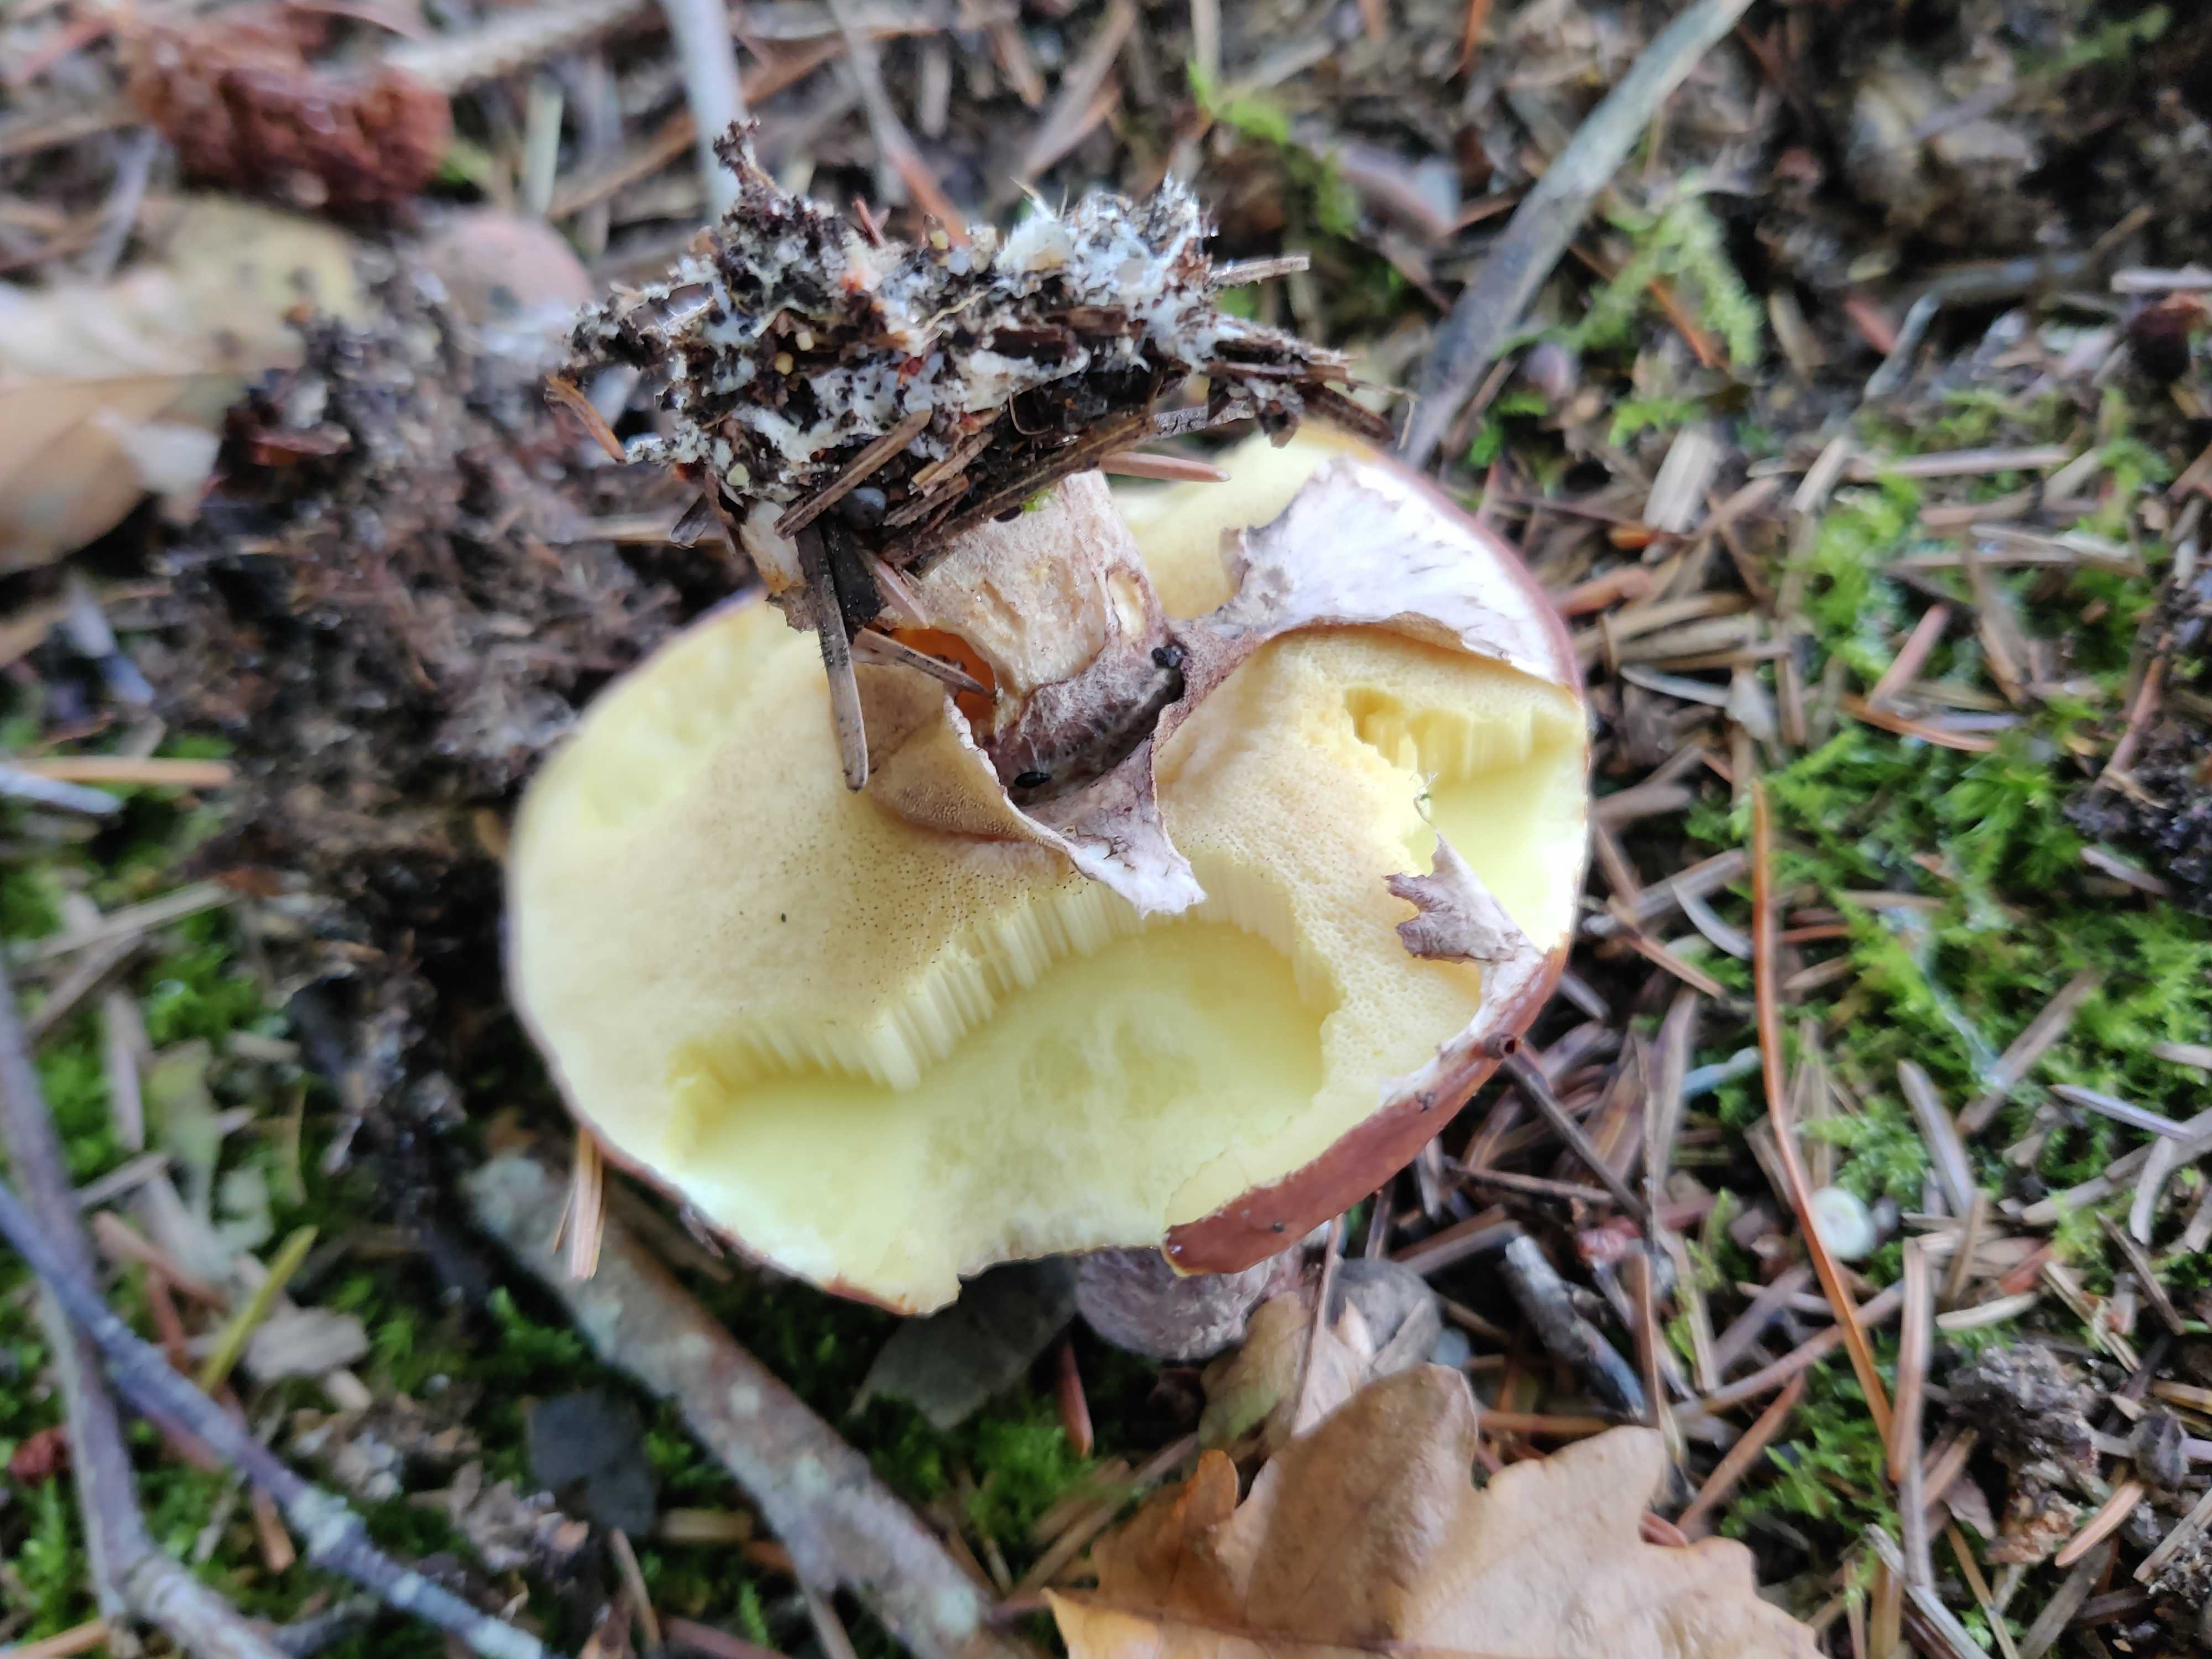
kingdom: Fungi
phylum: Basidiomycota
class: Agaricomycetes
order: Boletales
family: Suillaceae
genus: Suillus
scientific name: Suillus luteus
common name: brungul slimrørhat
